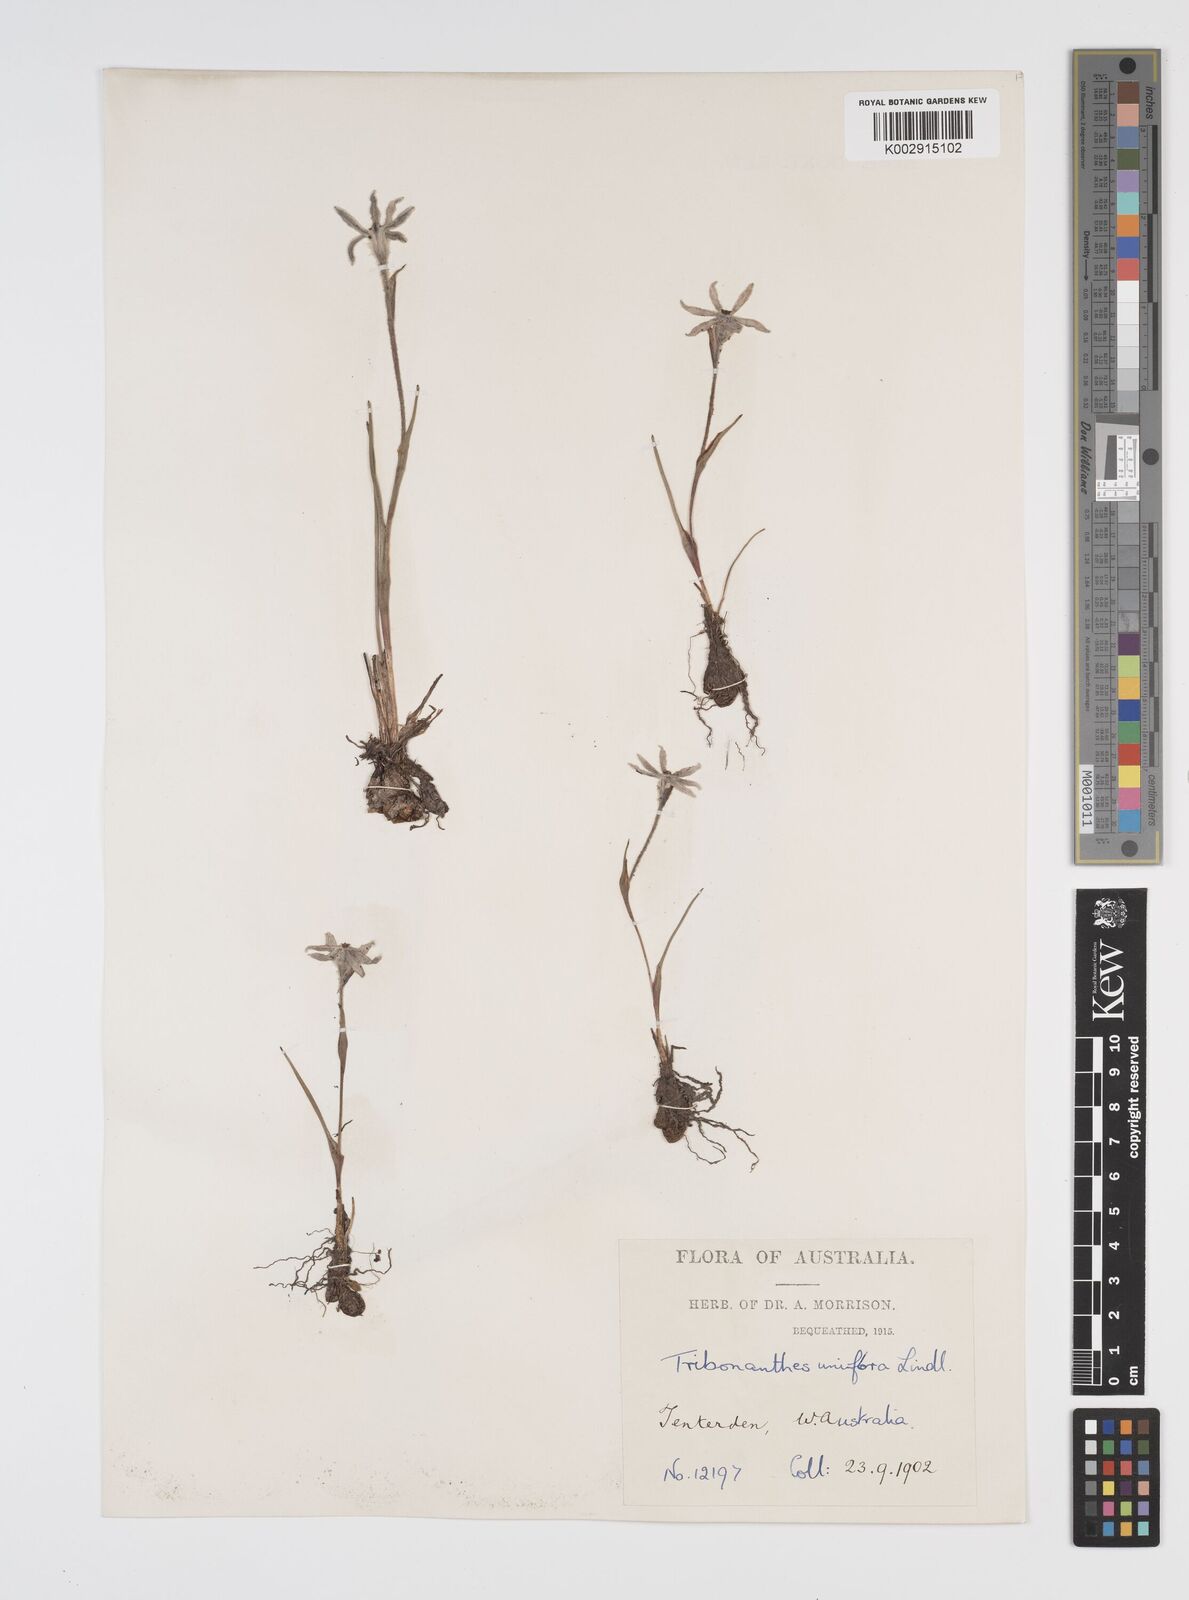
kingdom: Plantae
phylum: Tracheophyta
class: Liliopsida
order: Commelinales
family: Haemodoraceae
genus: Tribonanthes
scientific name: Tribonanthes uniflora
